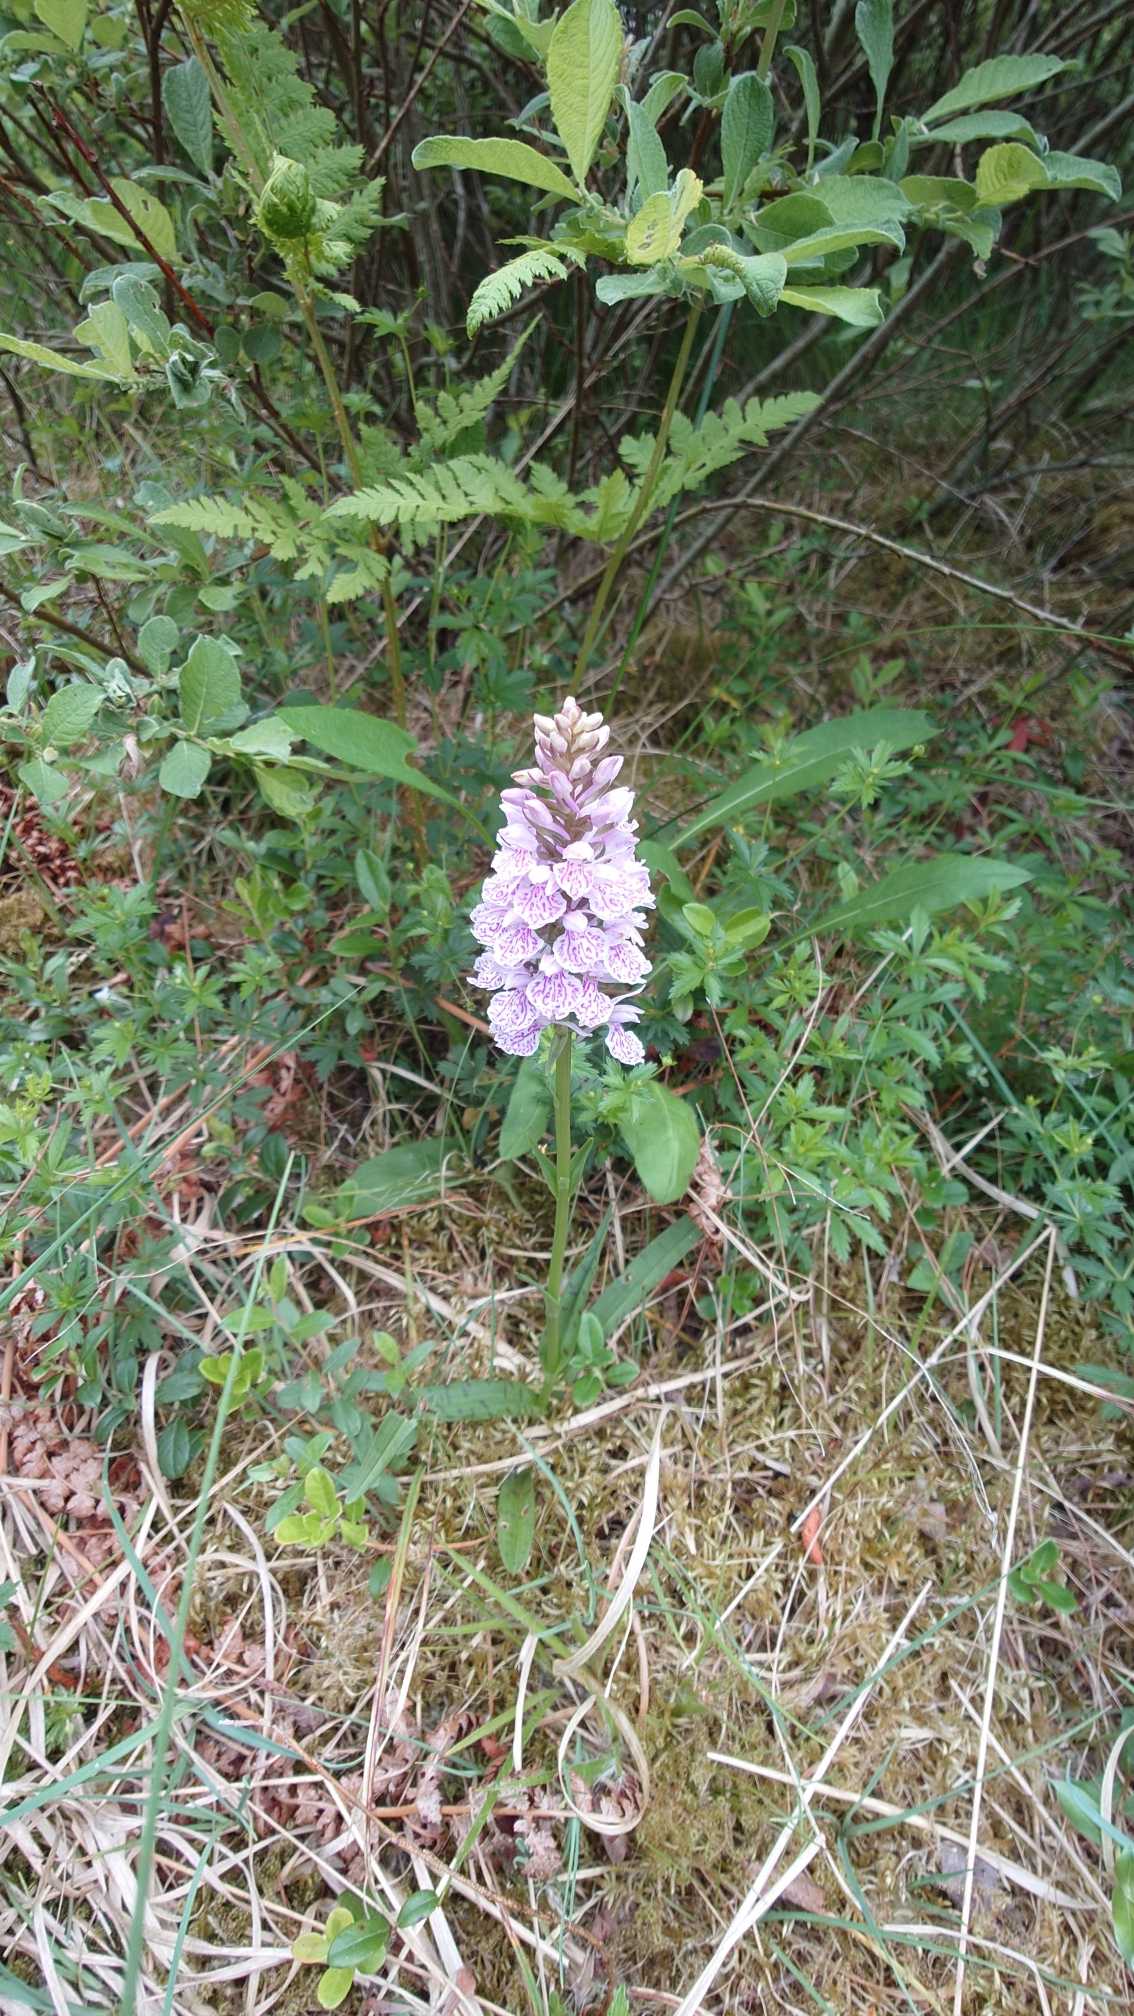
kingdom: Plantae
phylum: Tracheophyta
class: Liliopsida
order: Asparagales
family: Orchidaceae
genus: Dactylorhiza
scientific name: Dactylorhiza maculata
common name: Plettet gøgeurt (underart)
